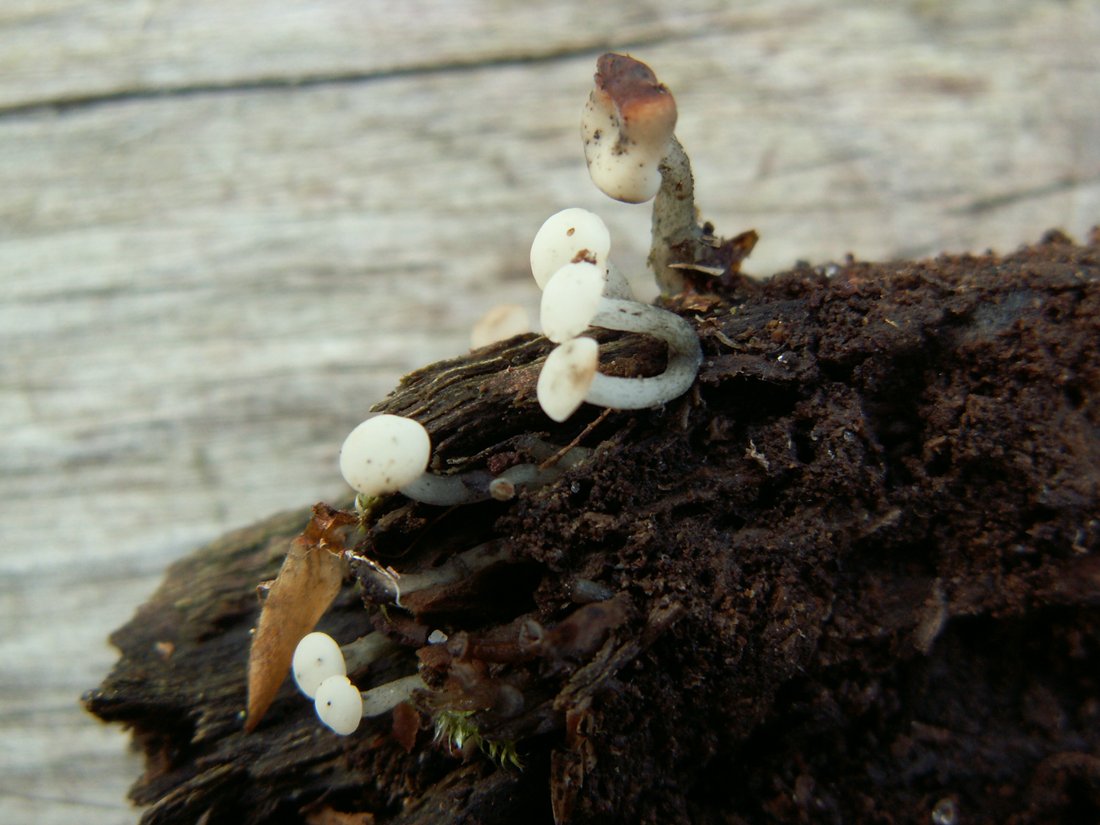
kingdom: Fungi
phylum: Ascomycota
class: Leotiomycetes
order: Helotiales
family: Tricladiaceae
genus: Cudoniella
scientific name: Cudoniella acicularis
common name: ege-dyndskive
